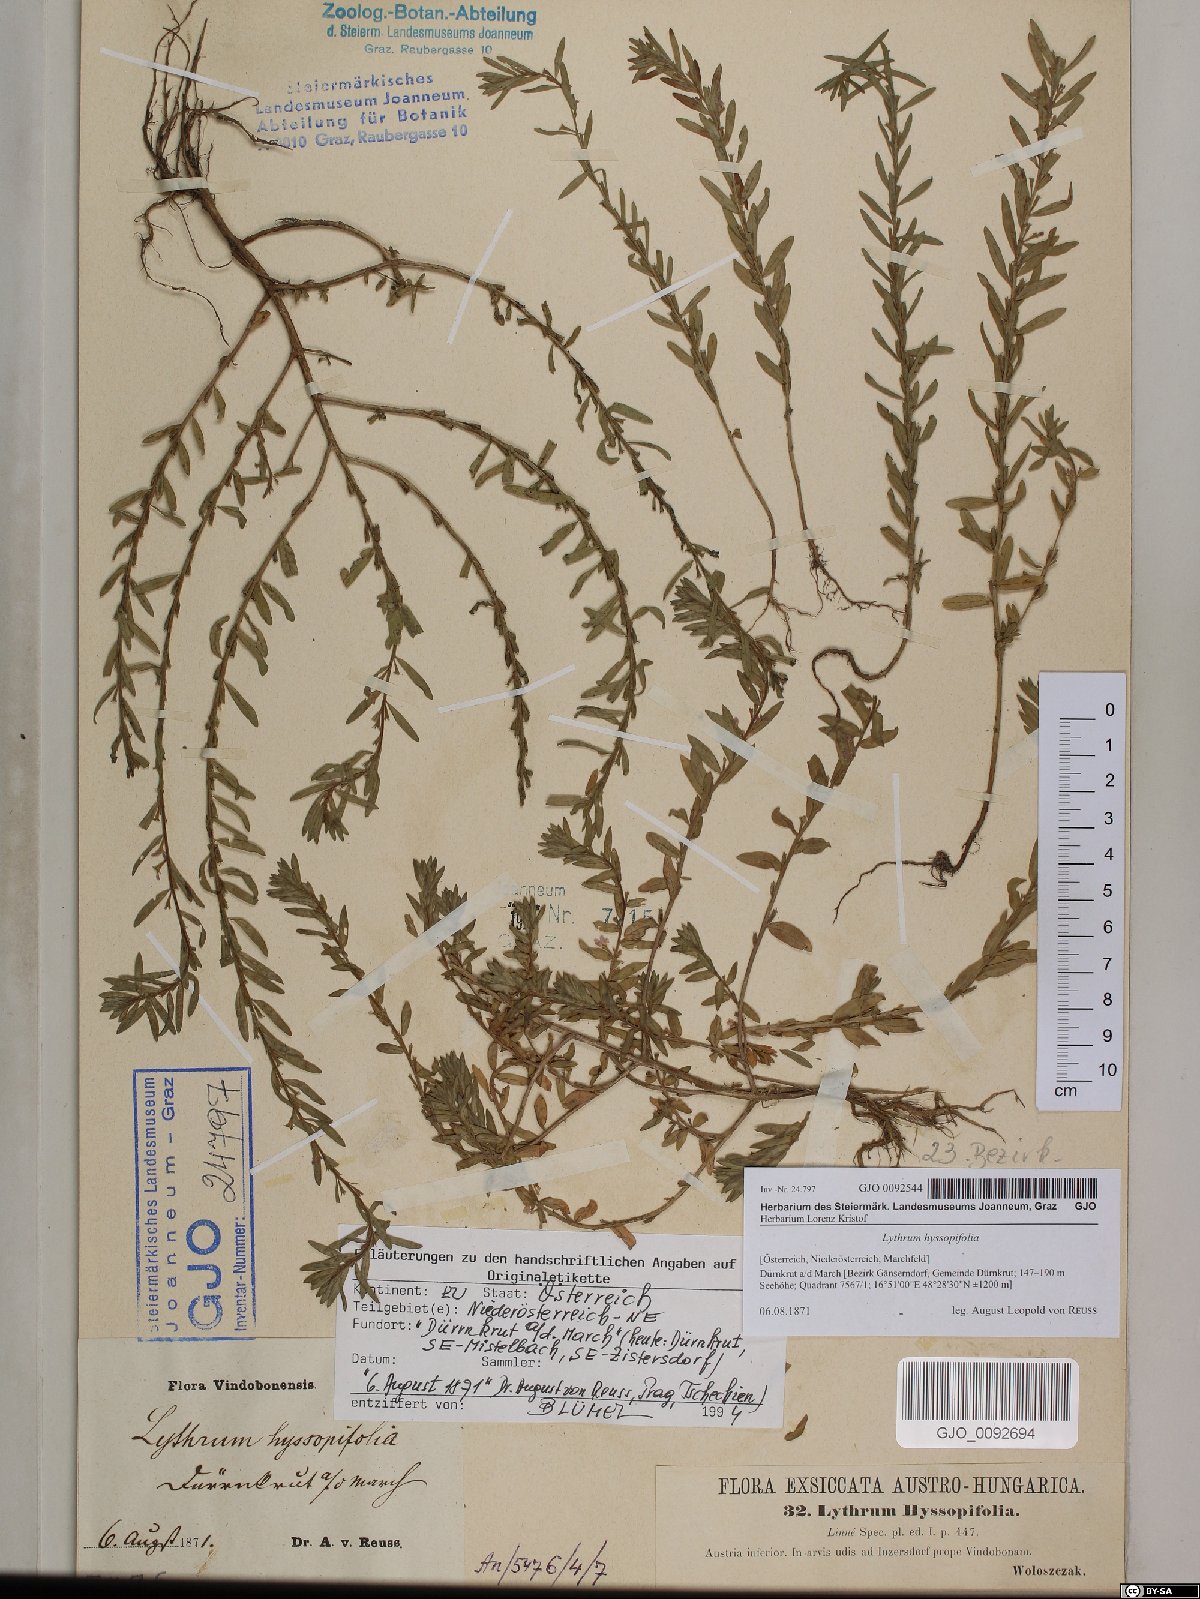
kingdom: Plantae
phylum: Tracheophyta
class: Magnoliopsida
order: Myrtales
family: Lythraceae
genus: Lythrum
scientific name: Lythrum hyssopifolia
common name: Grass-poly
